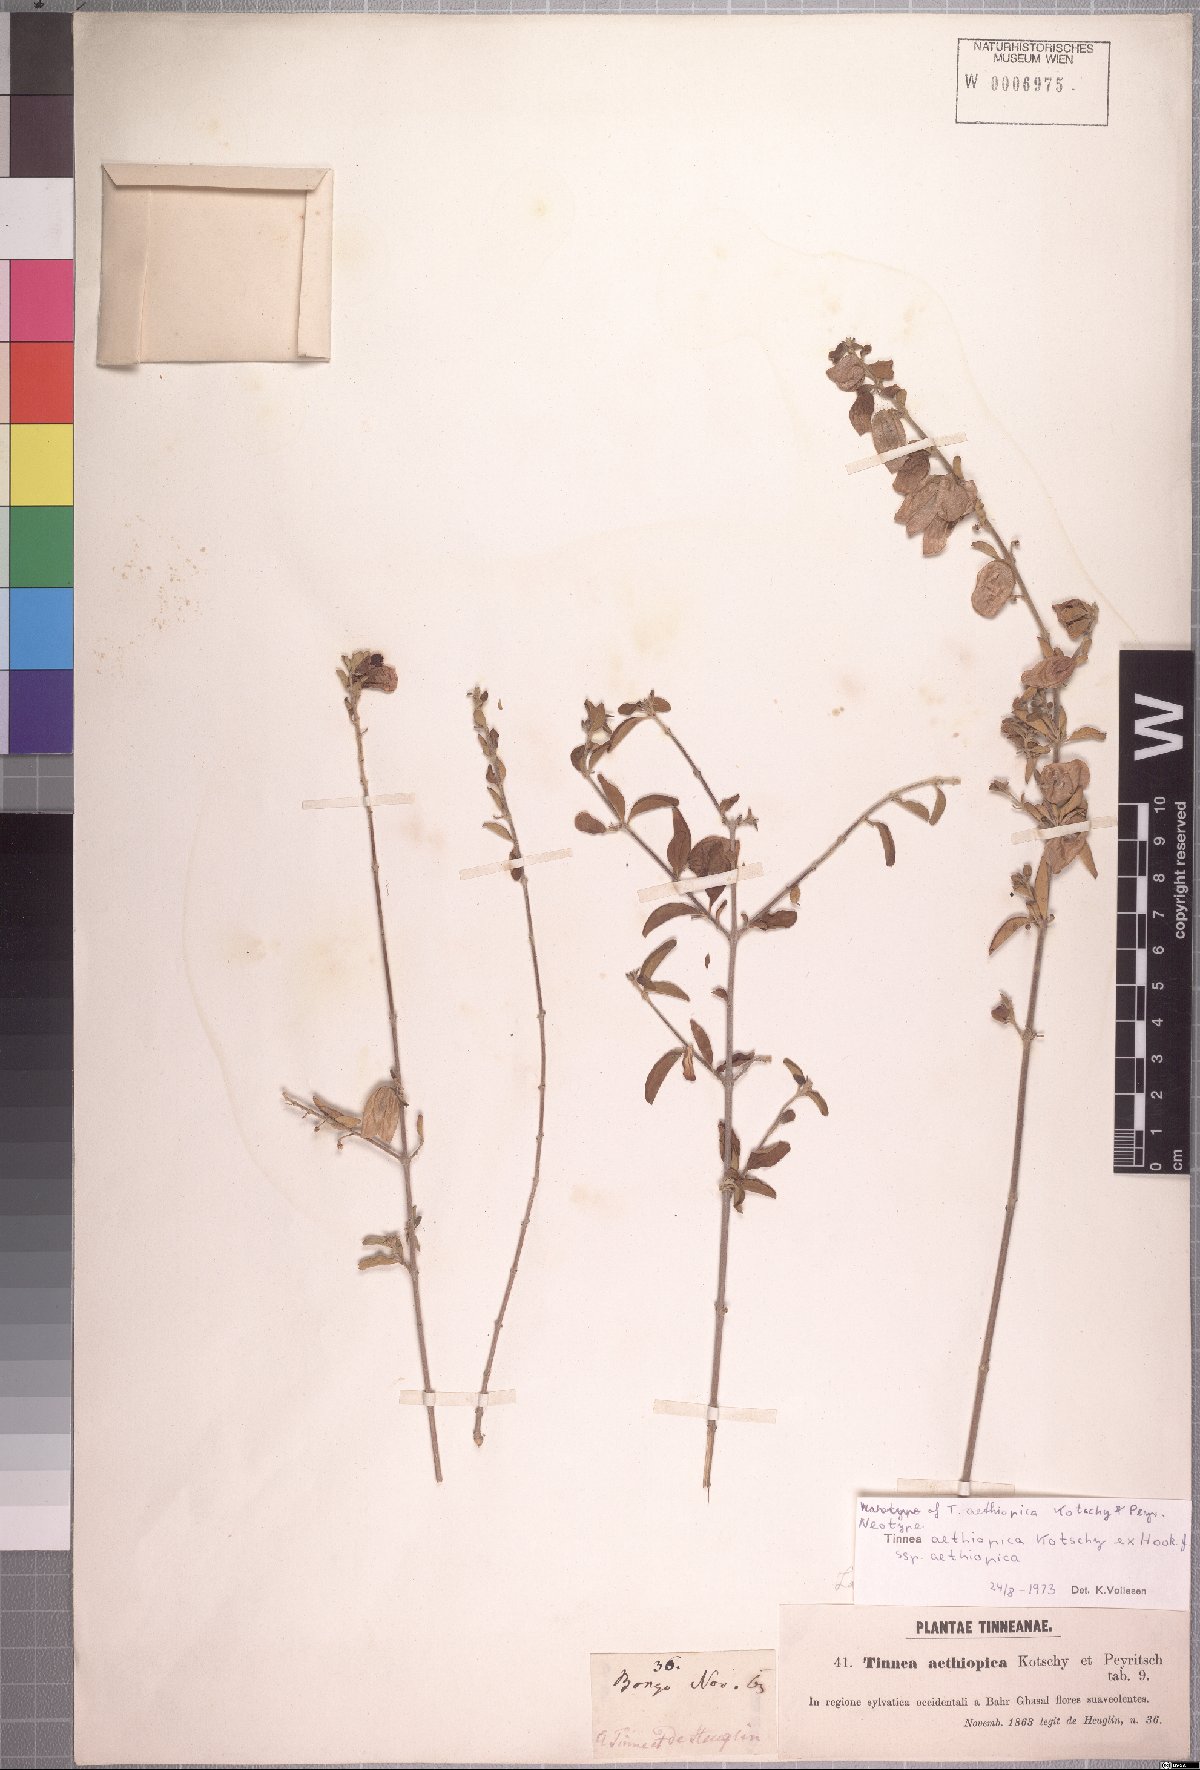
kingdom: Plantae
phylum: Tracheophyta
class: Magnoliopsida
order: Lamiales
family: Lamiaceae
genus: Tinnea
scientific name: Tinnea aethiopica
